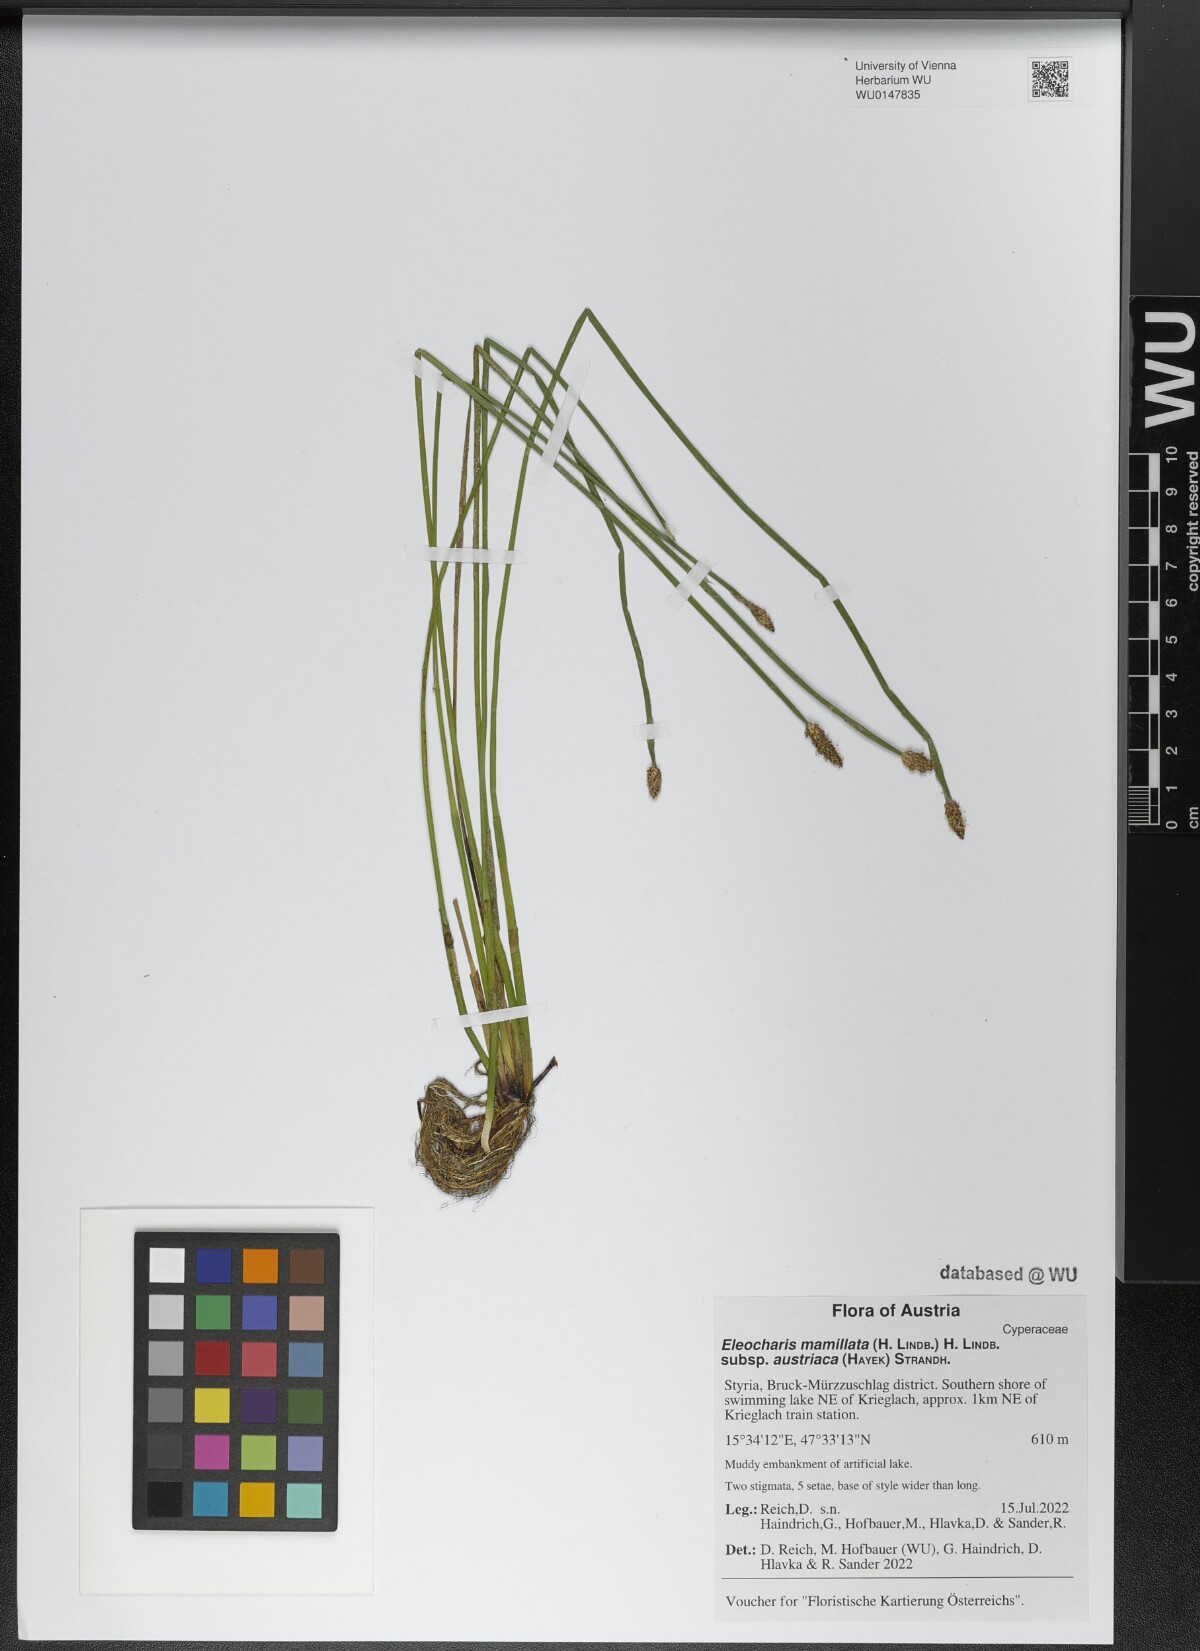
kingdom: Plantae
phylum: Tracheophyta
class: Liliopsida
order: Poales
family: Cyperaceae
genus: Eleocharis
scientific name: Eleocharis mamillata
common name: Northern spike-rush
